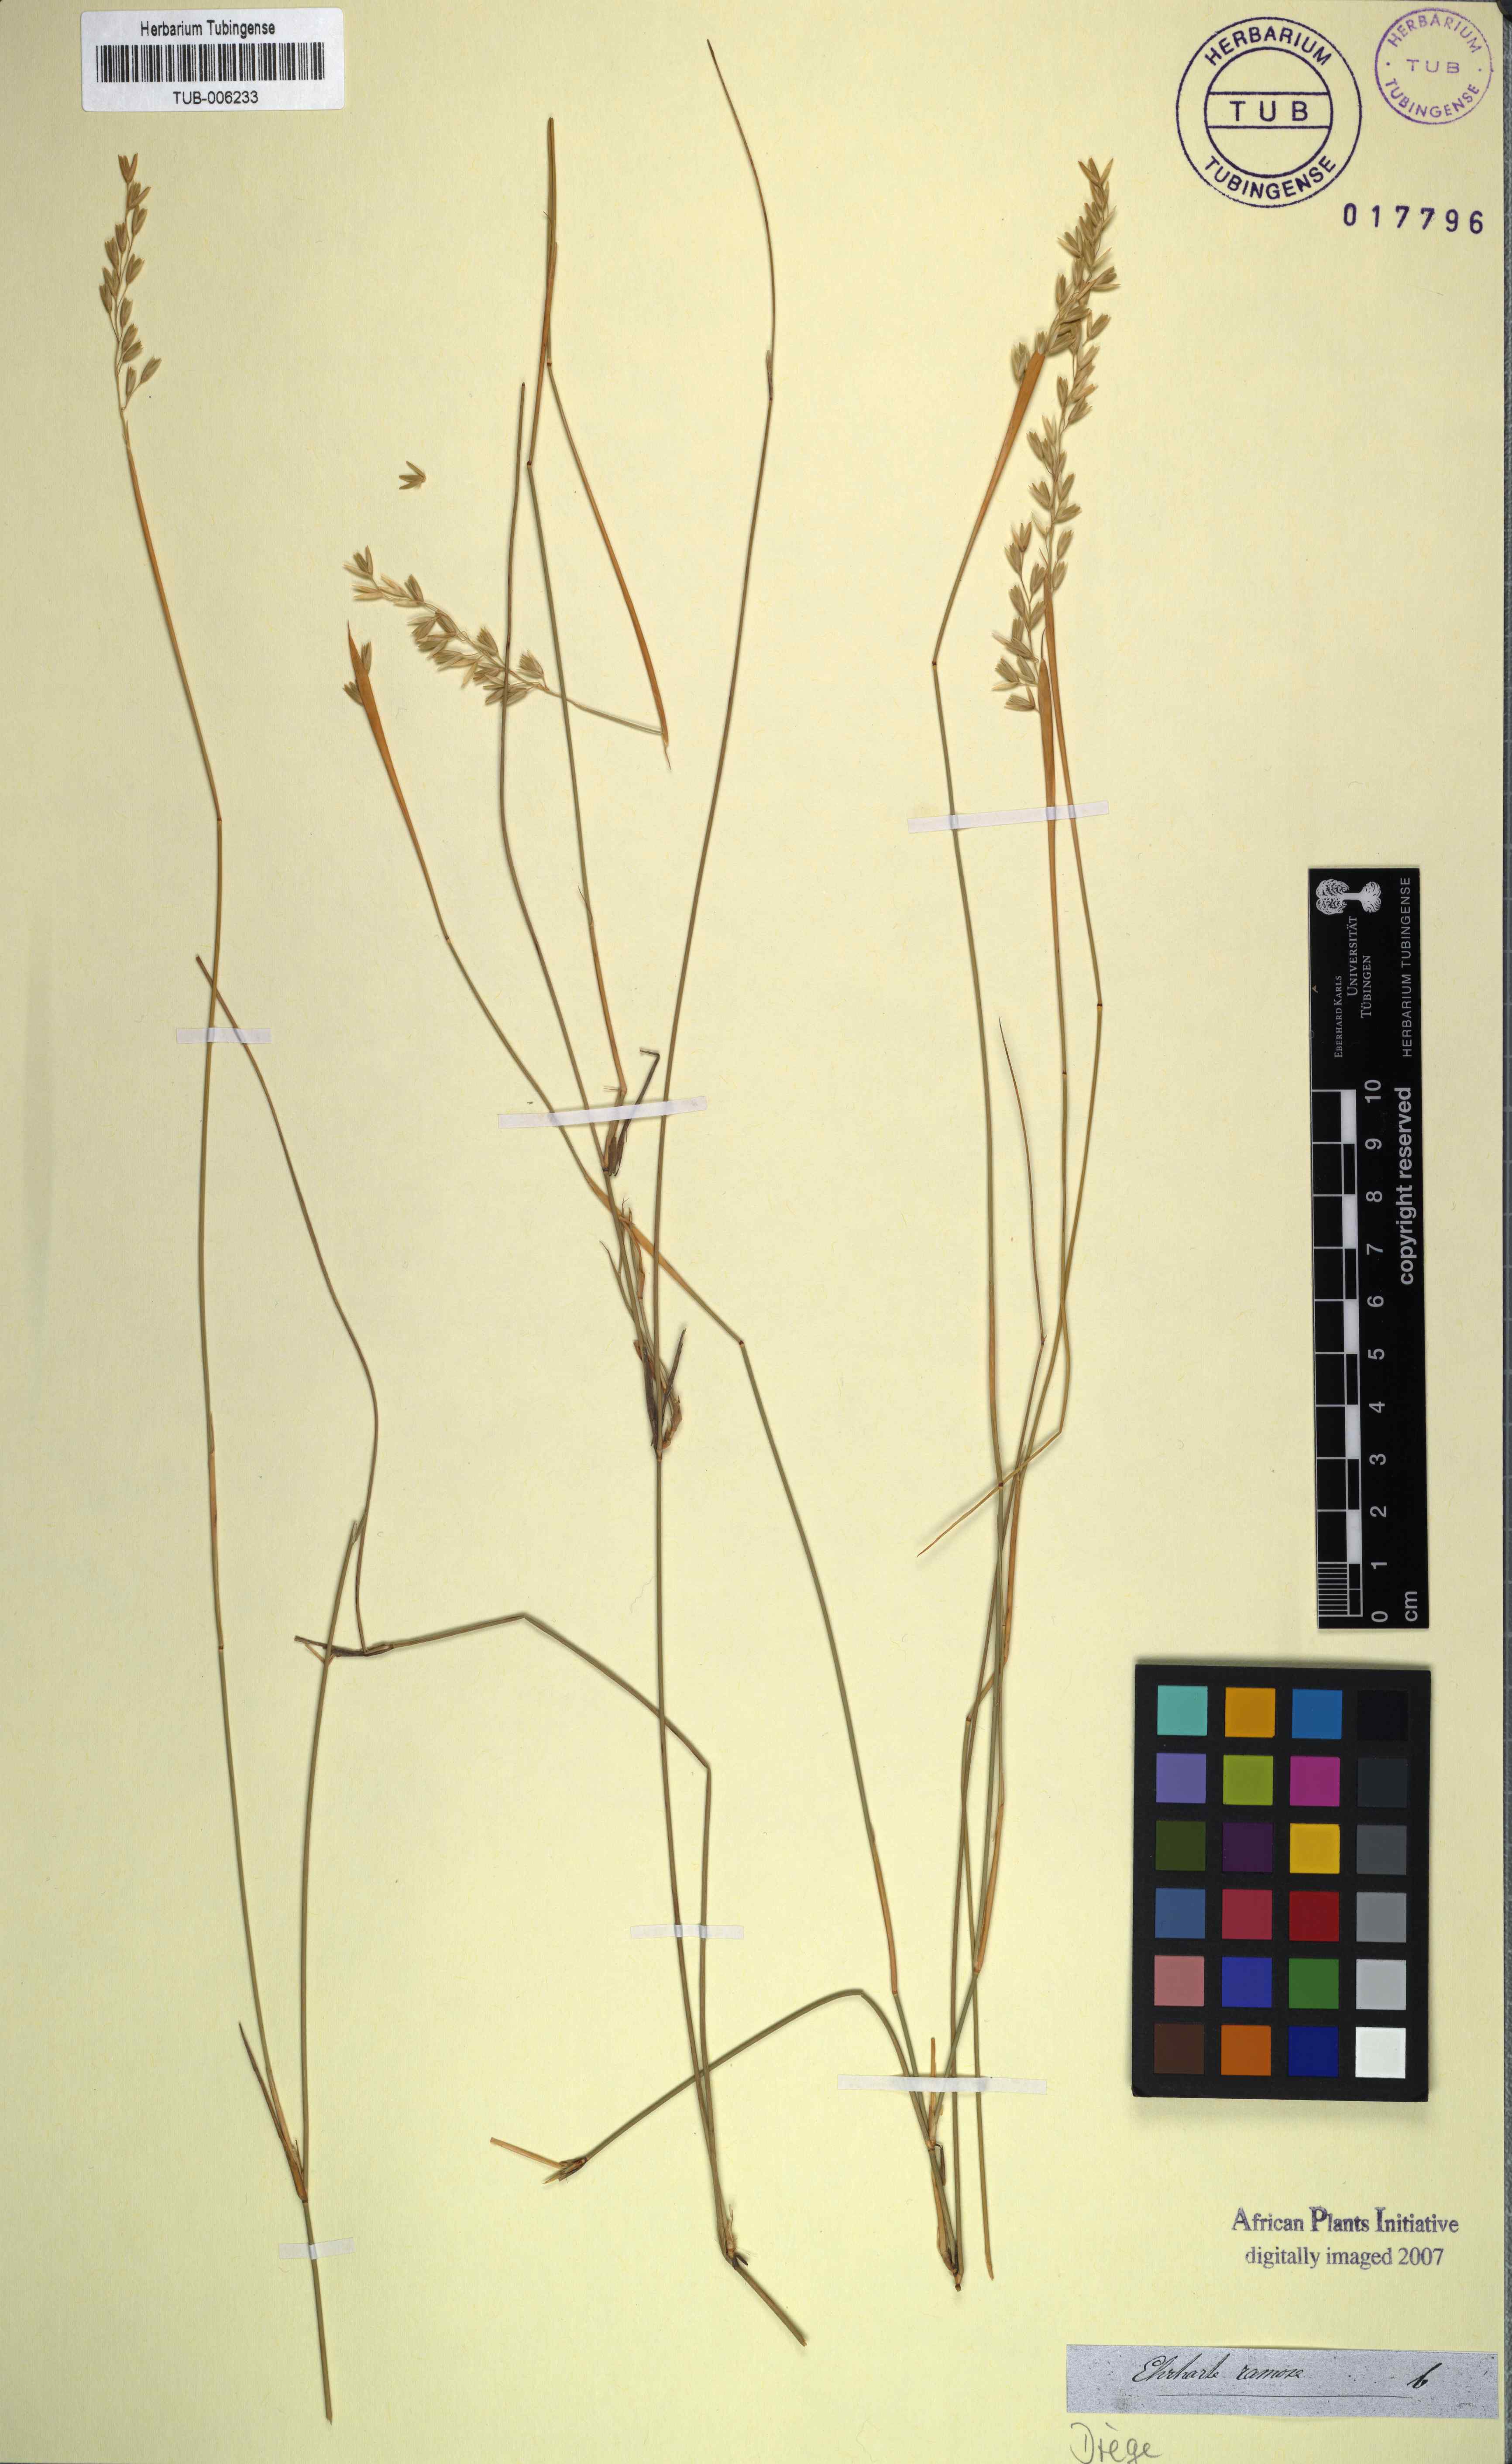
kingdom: Plantae
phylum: Tracheophyta
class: Liliopsida
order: Poales
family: Poaceae
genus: Ehrharta
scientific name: Ehrharta ramosa
